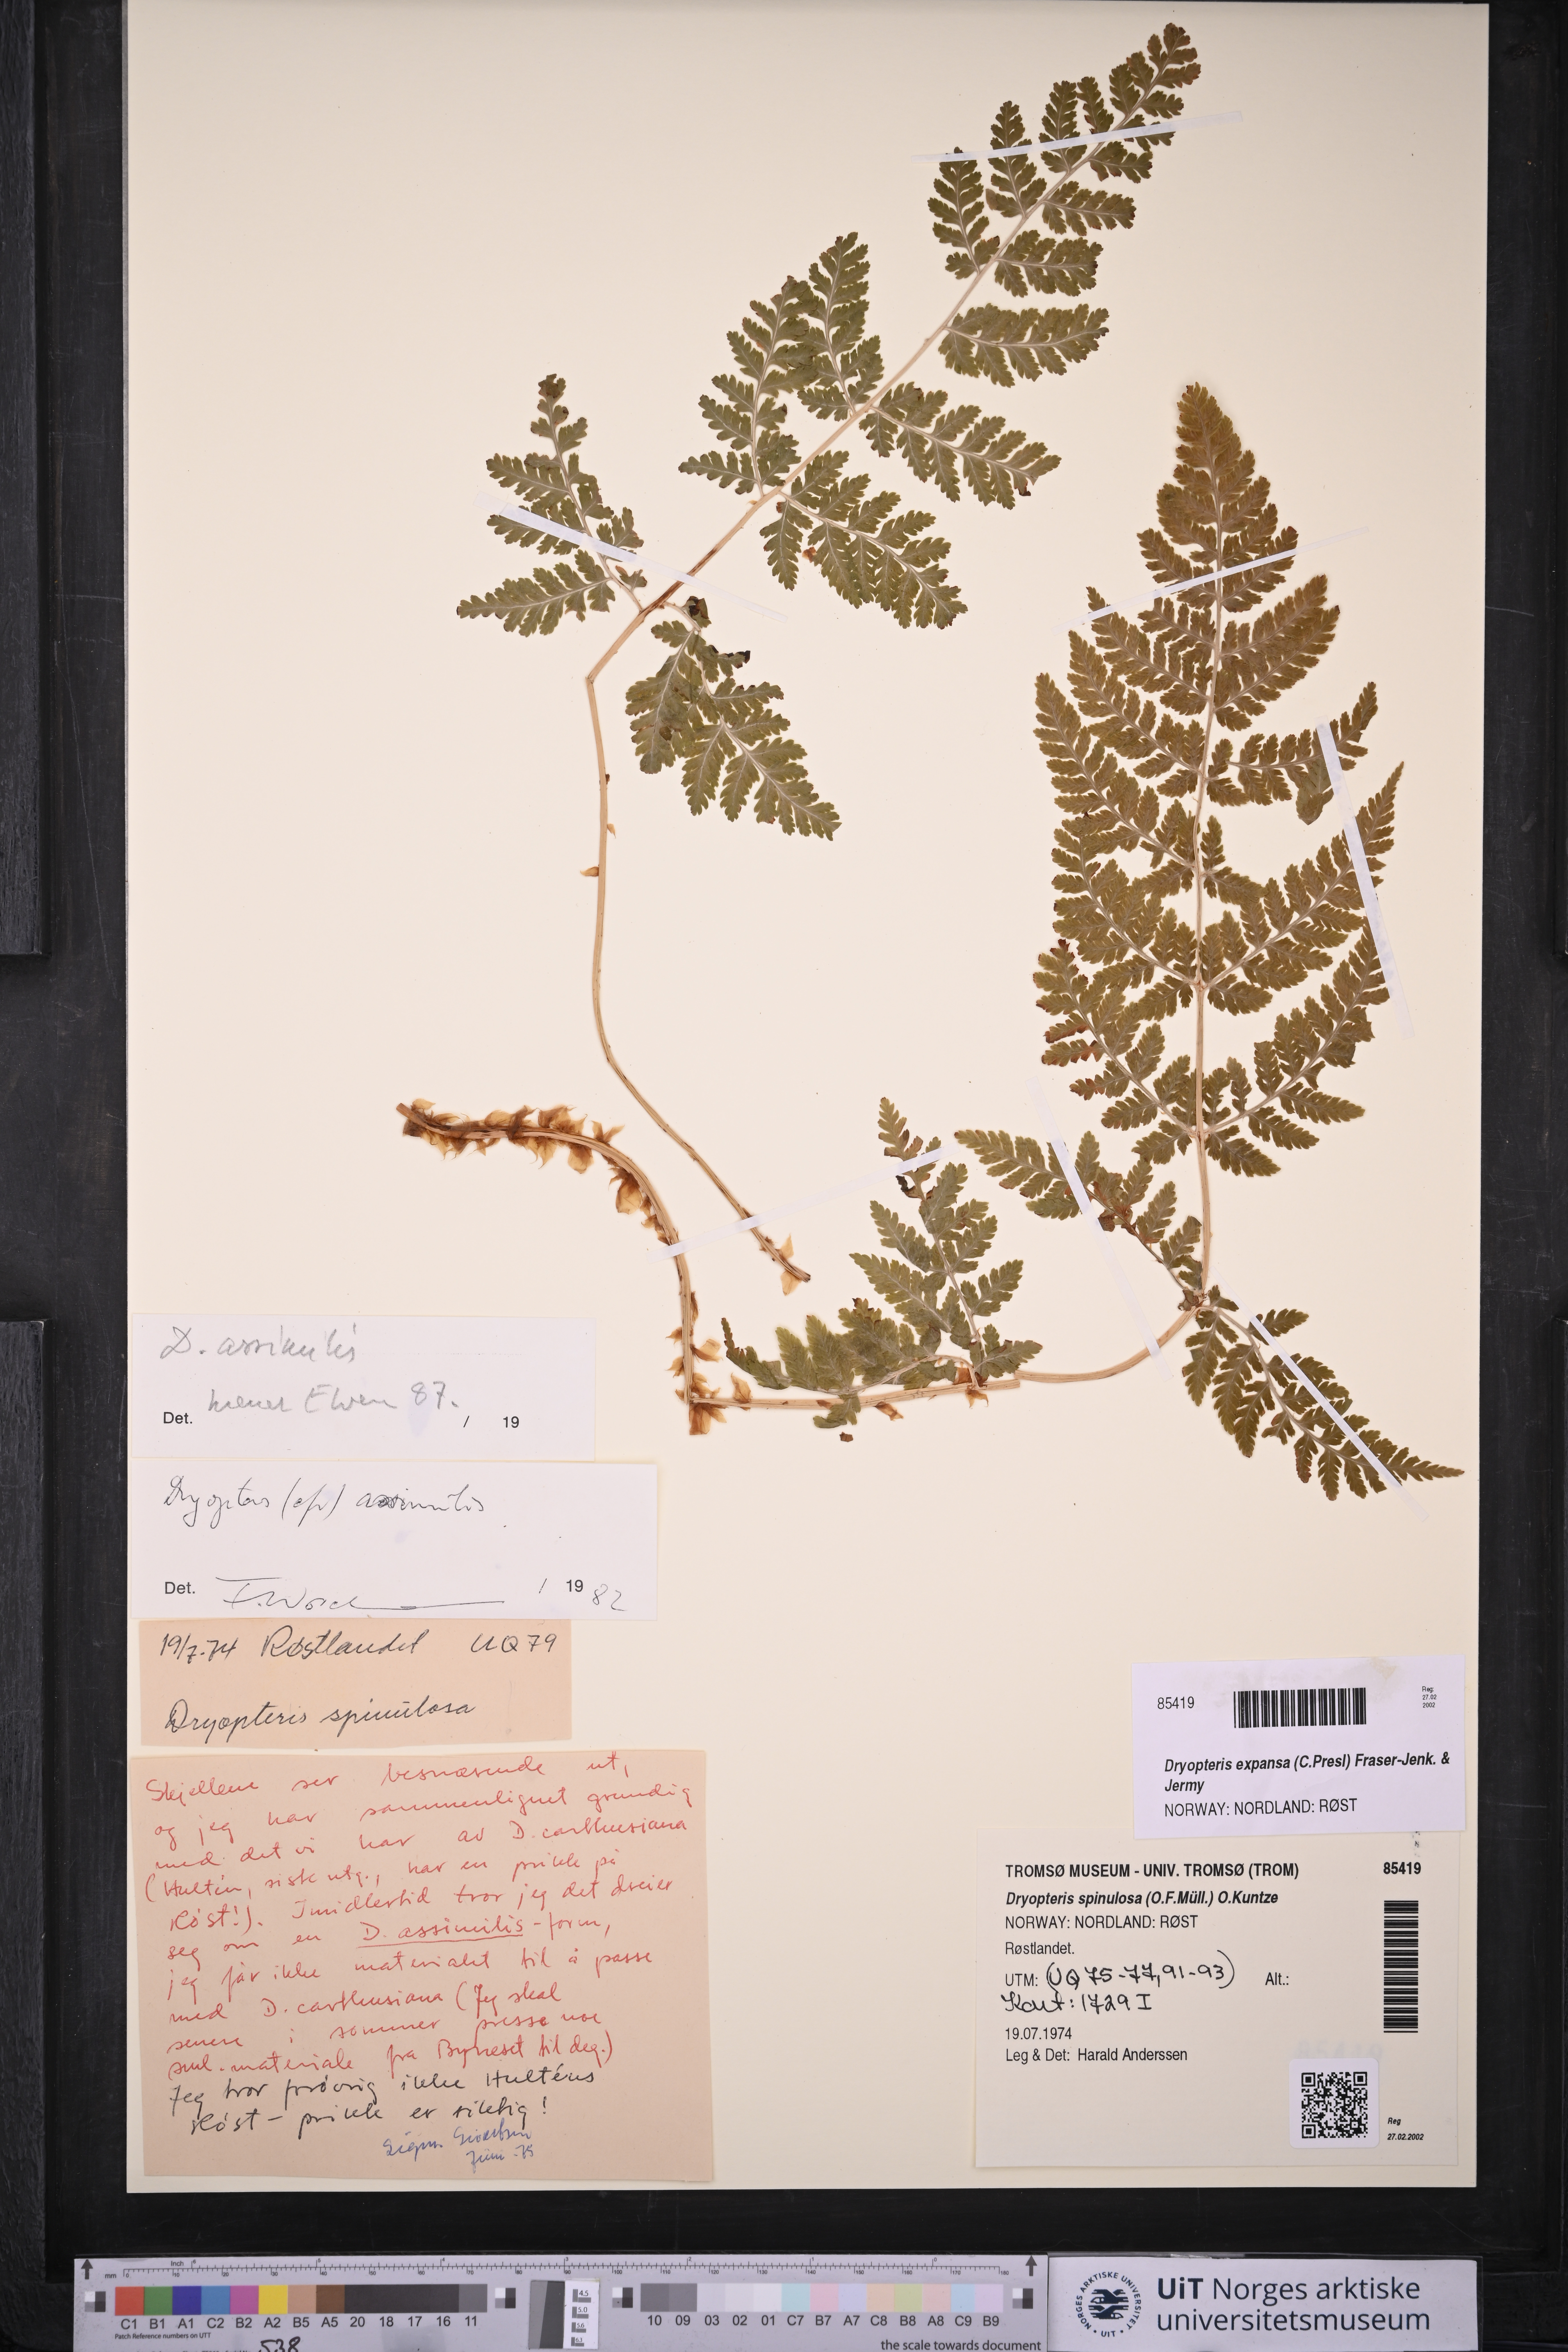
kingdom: Plantae
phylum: Tracheophyta
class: Polypodiopsida
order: Polypodiales
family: Dryopteridaceae
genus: Dryopteris
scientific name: Dryopteris expansa
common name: Northern buckler fern
